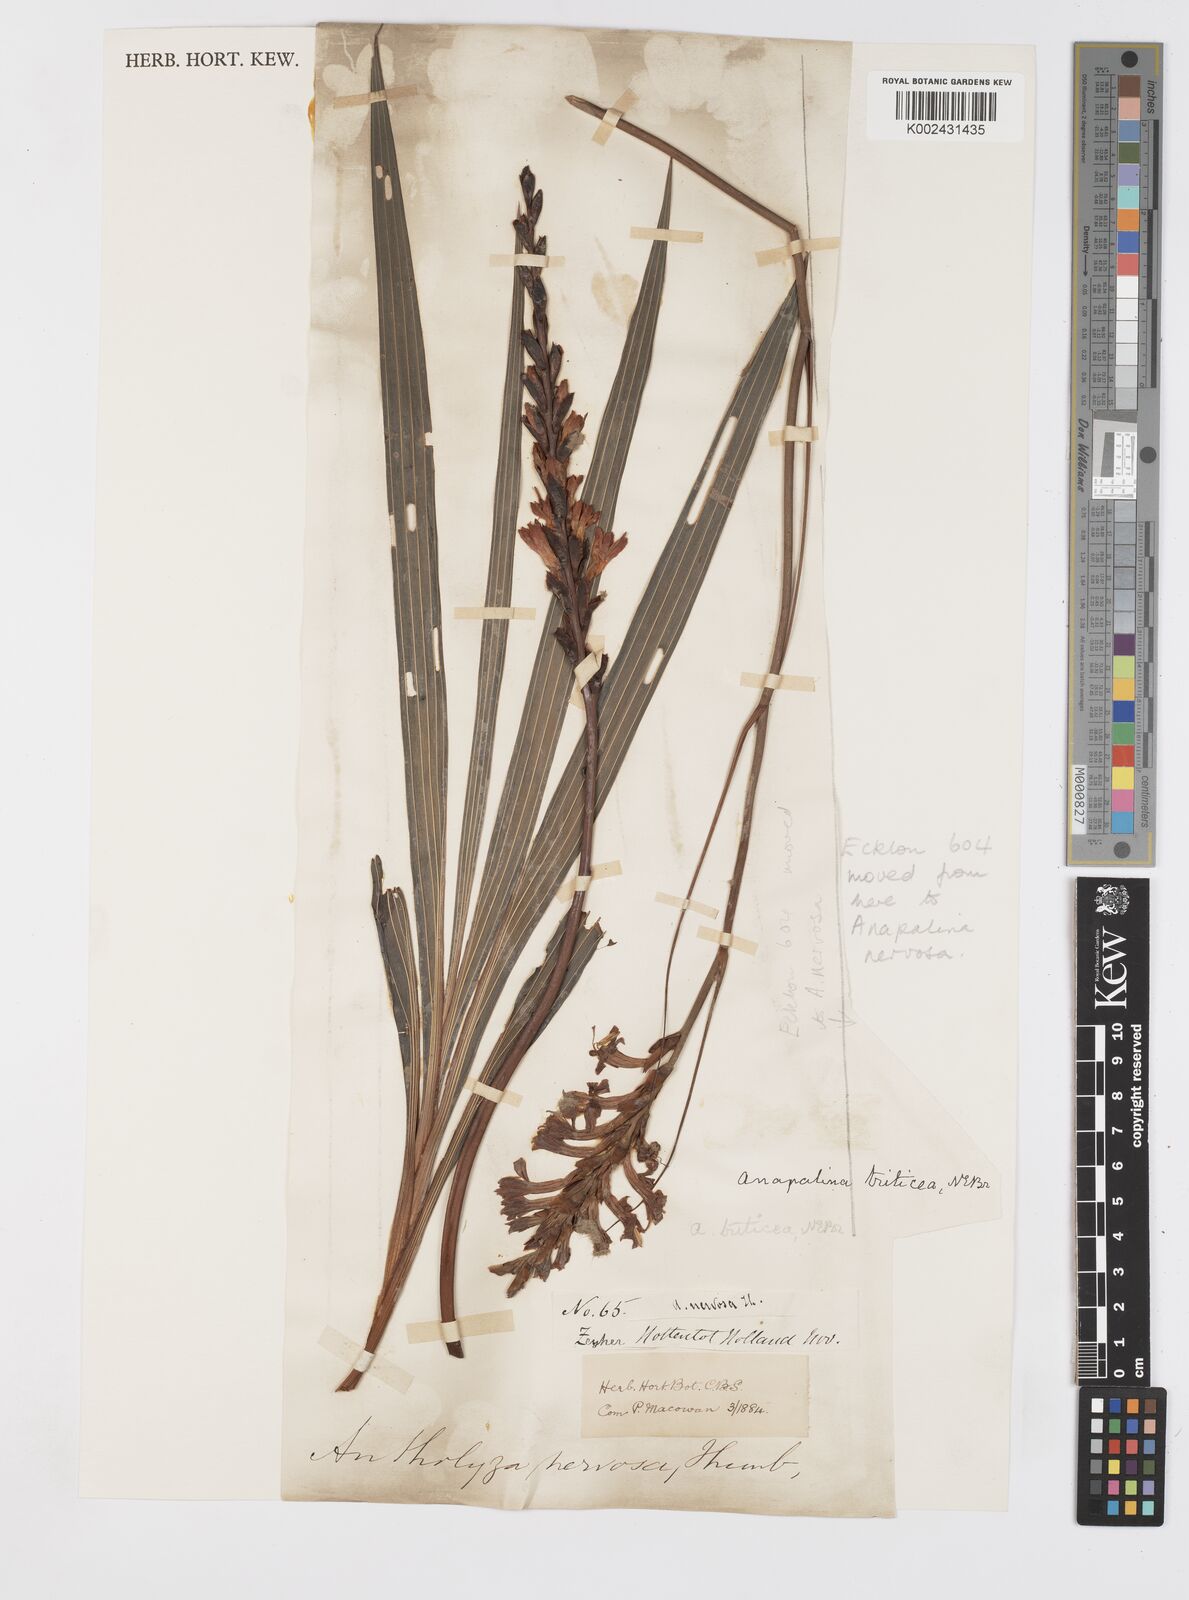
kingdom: Plantae
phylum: Tracheophyta
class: Liliopsida
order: Asparagales
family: Iridaceae
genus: Tritoniopsis
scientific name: Tritoniopsis triticea
